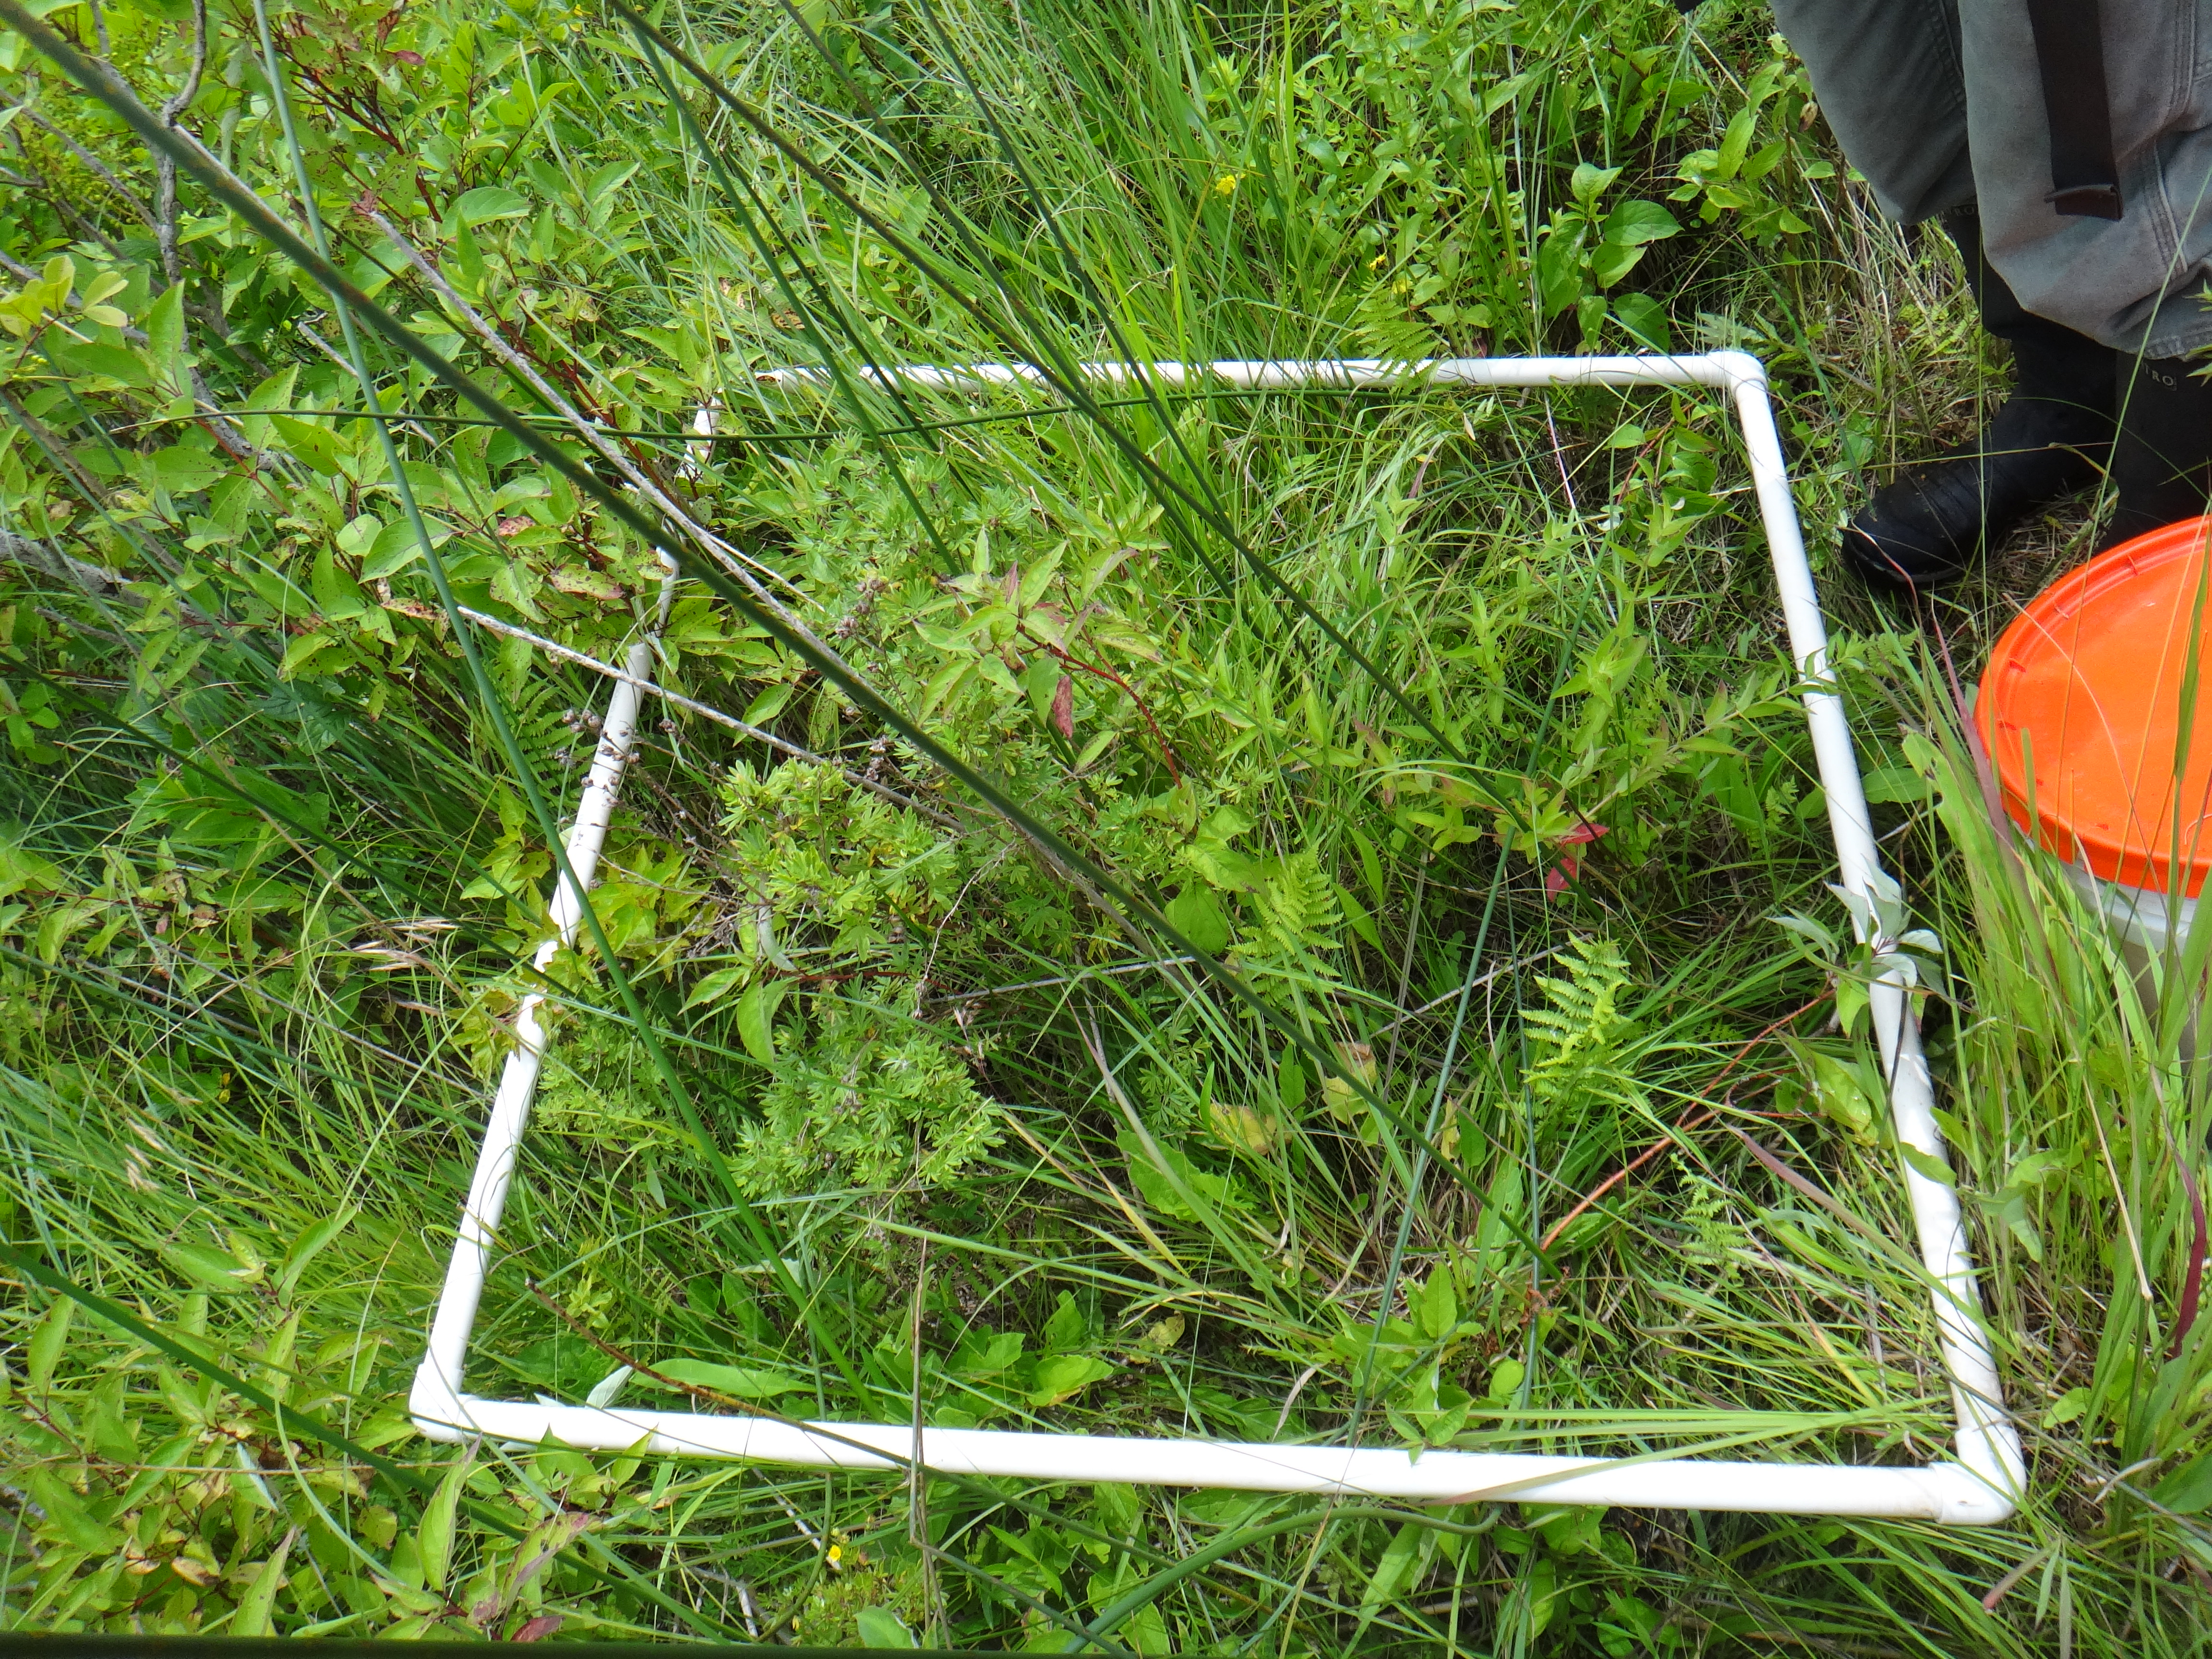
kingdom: Plantae
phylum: Tracheophyta
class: Magnoliopsida
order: Asterales
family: Asteraceae
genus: Doellingeria
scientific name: Doellingeria umbellata
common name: Flat-top white aster
